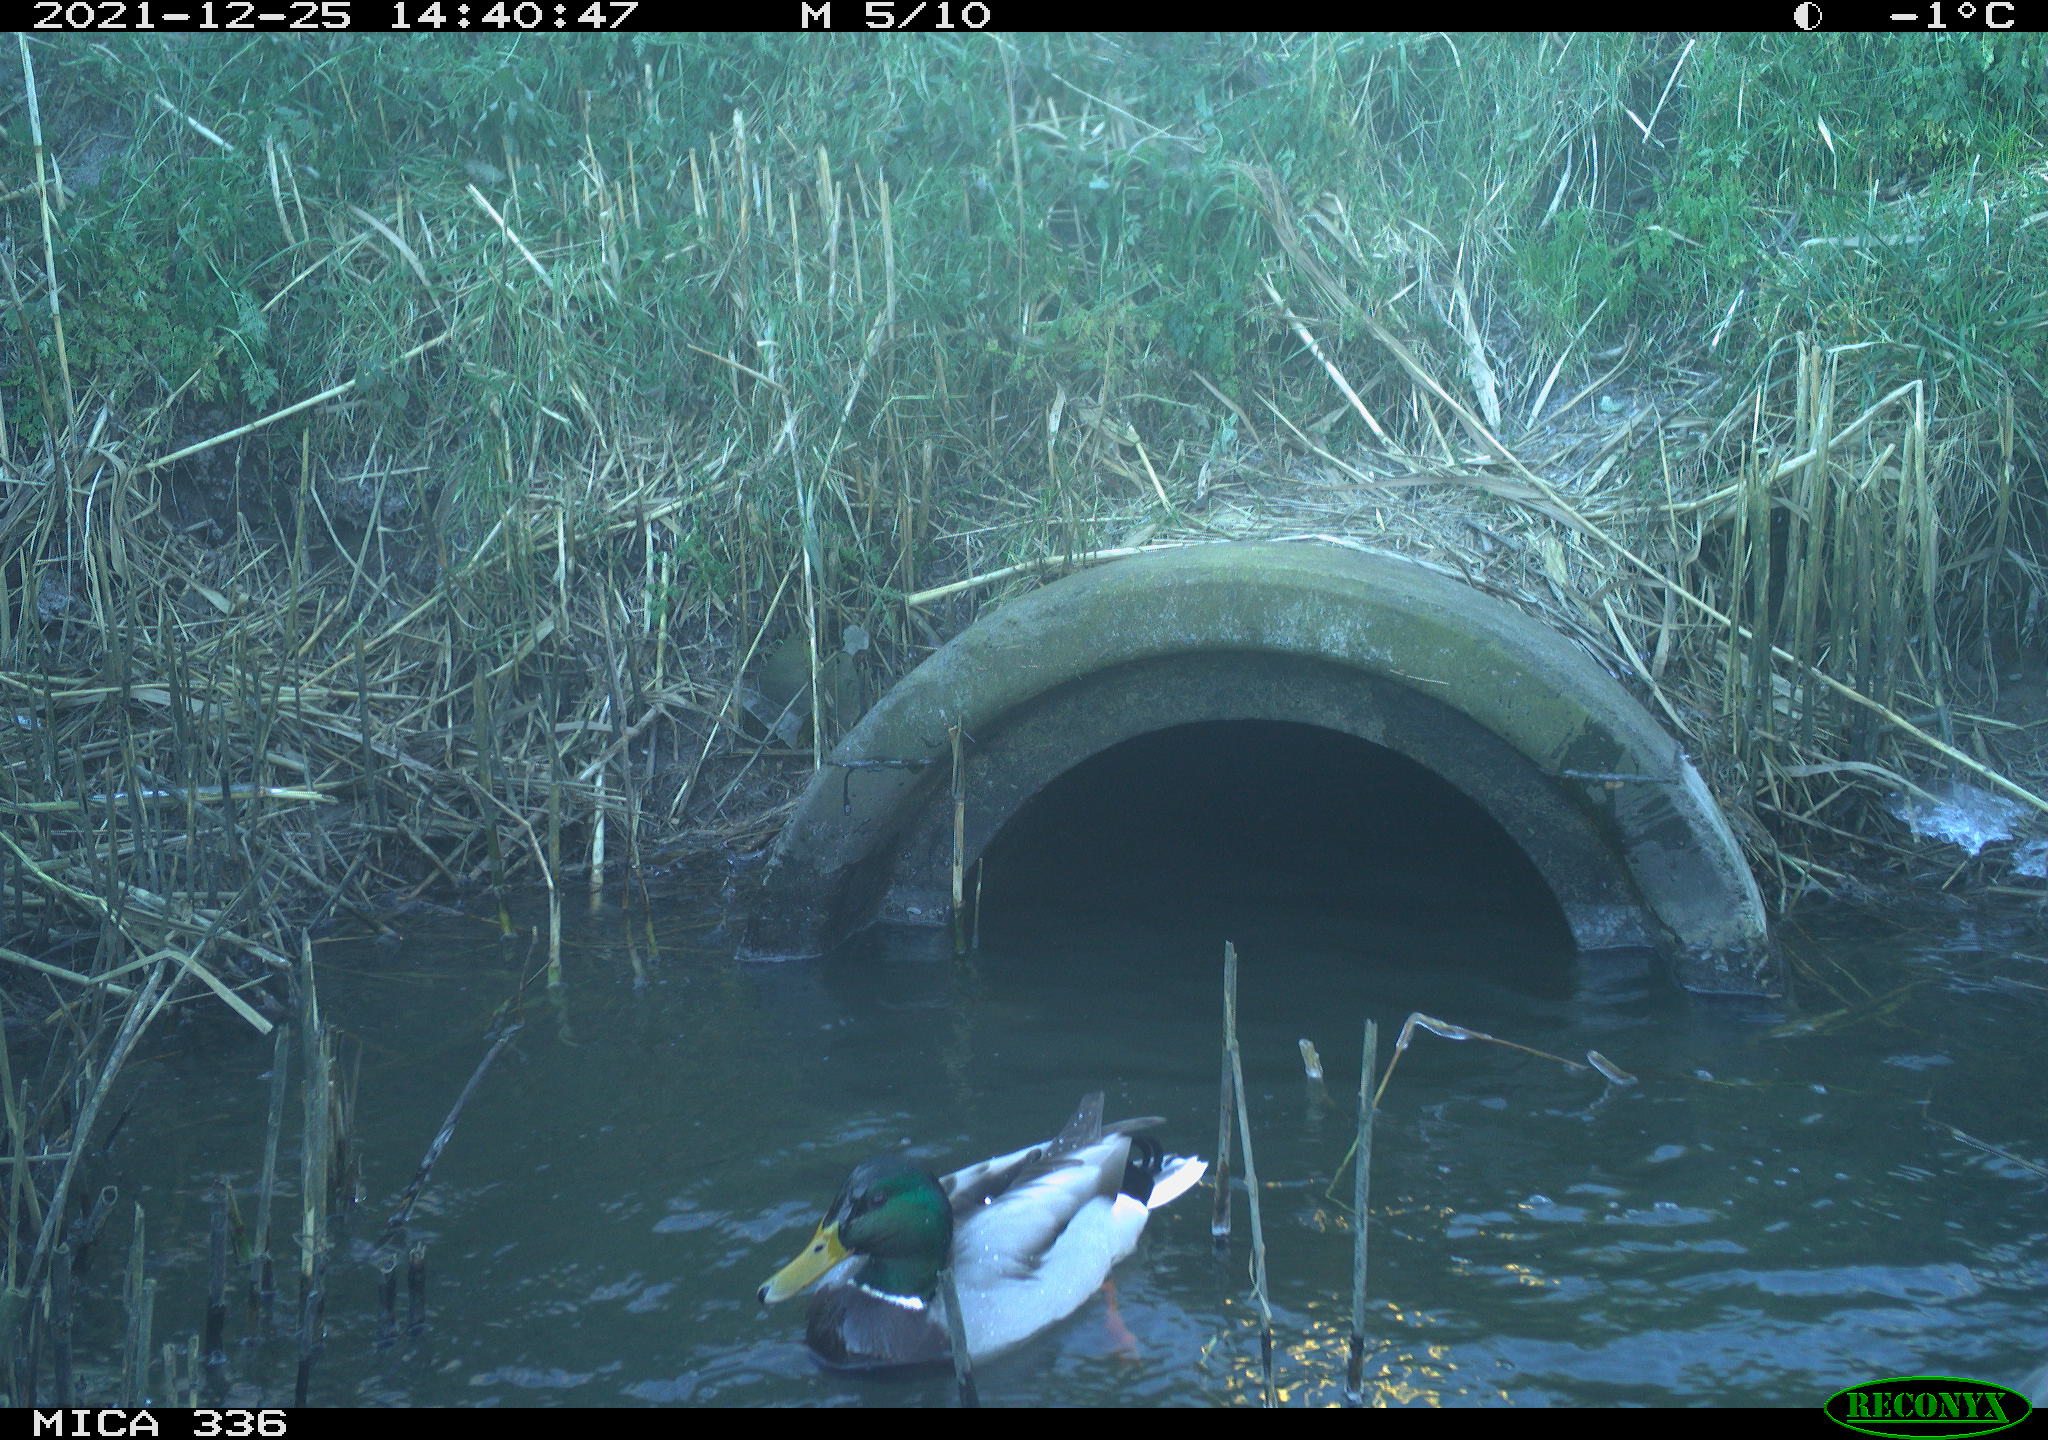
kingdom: Animalia
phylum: Chordata
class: Aves
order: Anseriformes
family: Anatidae
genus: Anas
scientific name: Anas platyrhynchos
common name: Mallard
